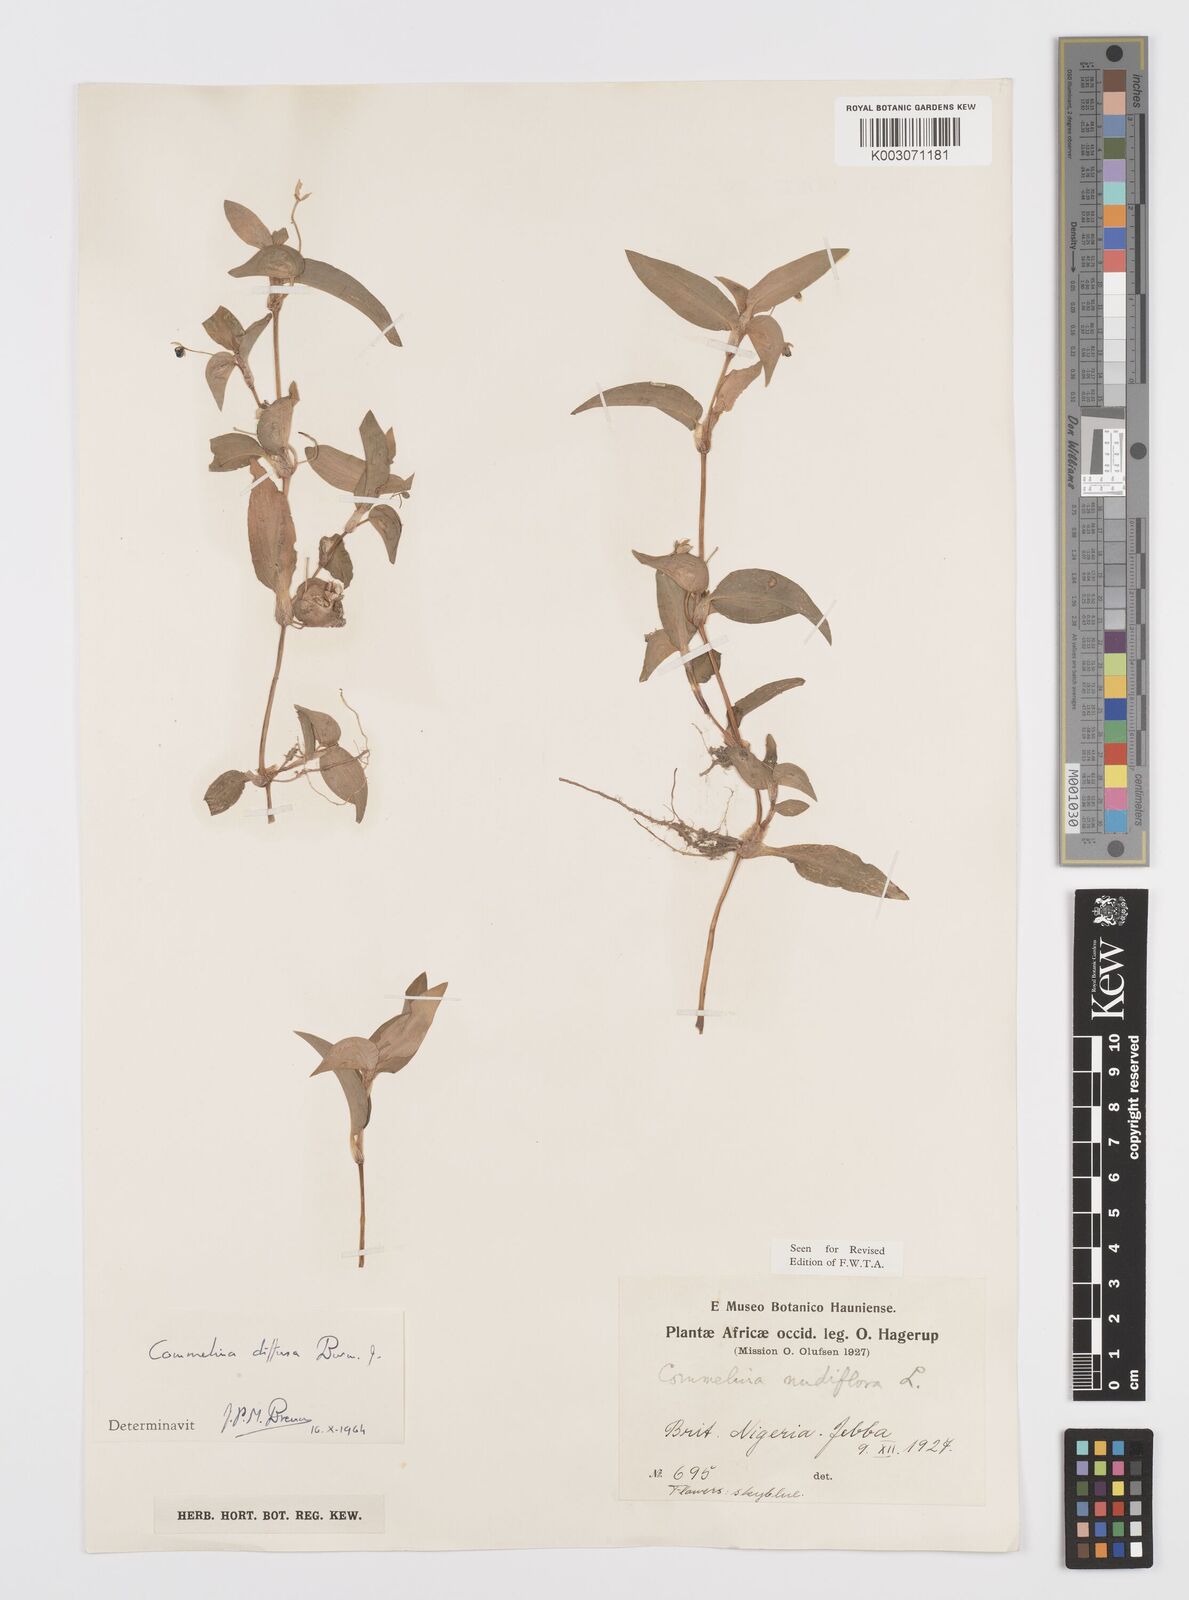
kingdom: Plantae
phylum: Tracheophyta
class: Liliopsida
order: Commelinales
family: Commelinaceae
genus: Commelina
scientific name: Commelina diffusa
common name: Climbing dayflower
